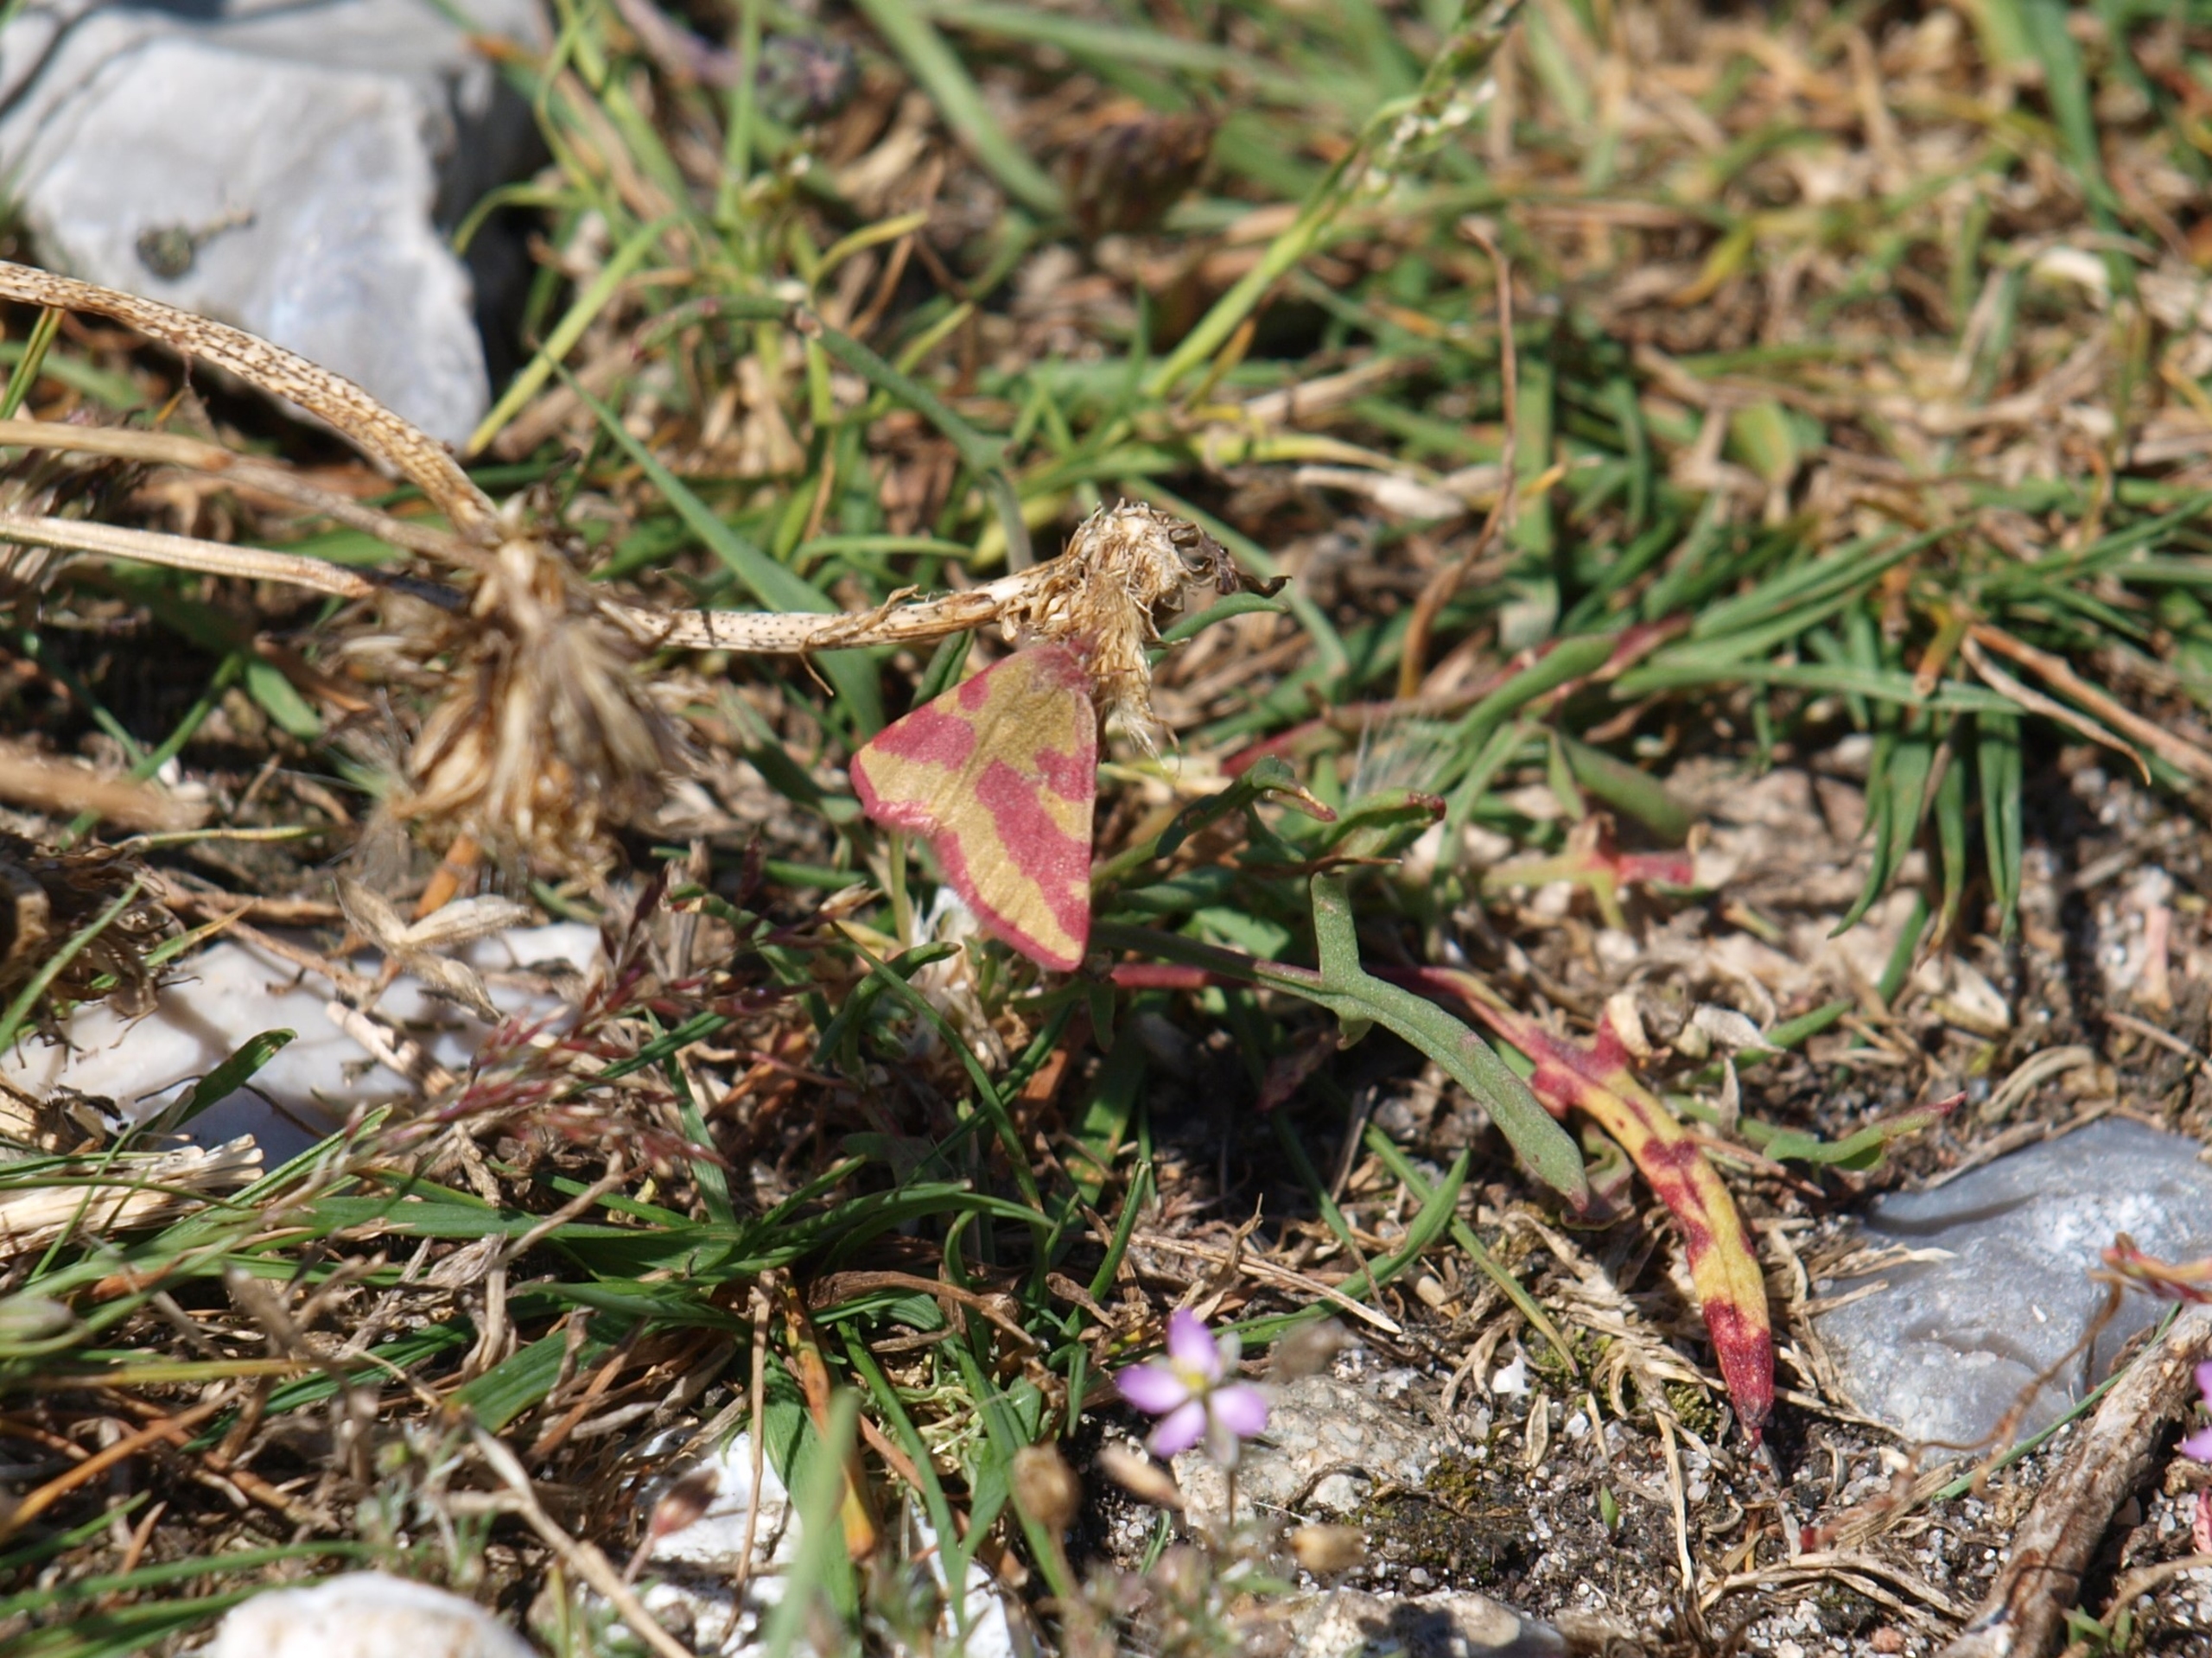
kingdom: Animalia
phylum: Arthropoda
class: Insecta
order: Lepidoptera
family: Geometridae
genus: Lythria
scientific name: Lythria cruentaria
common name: Purpurmåler
